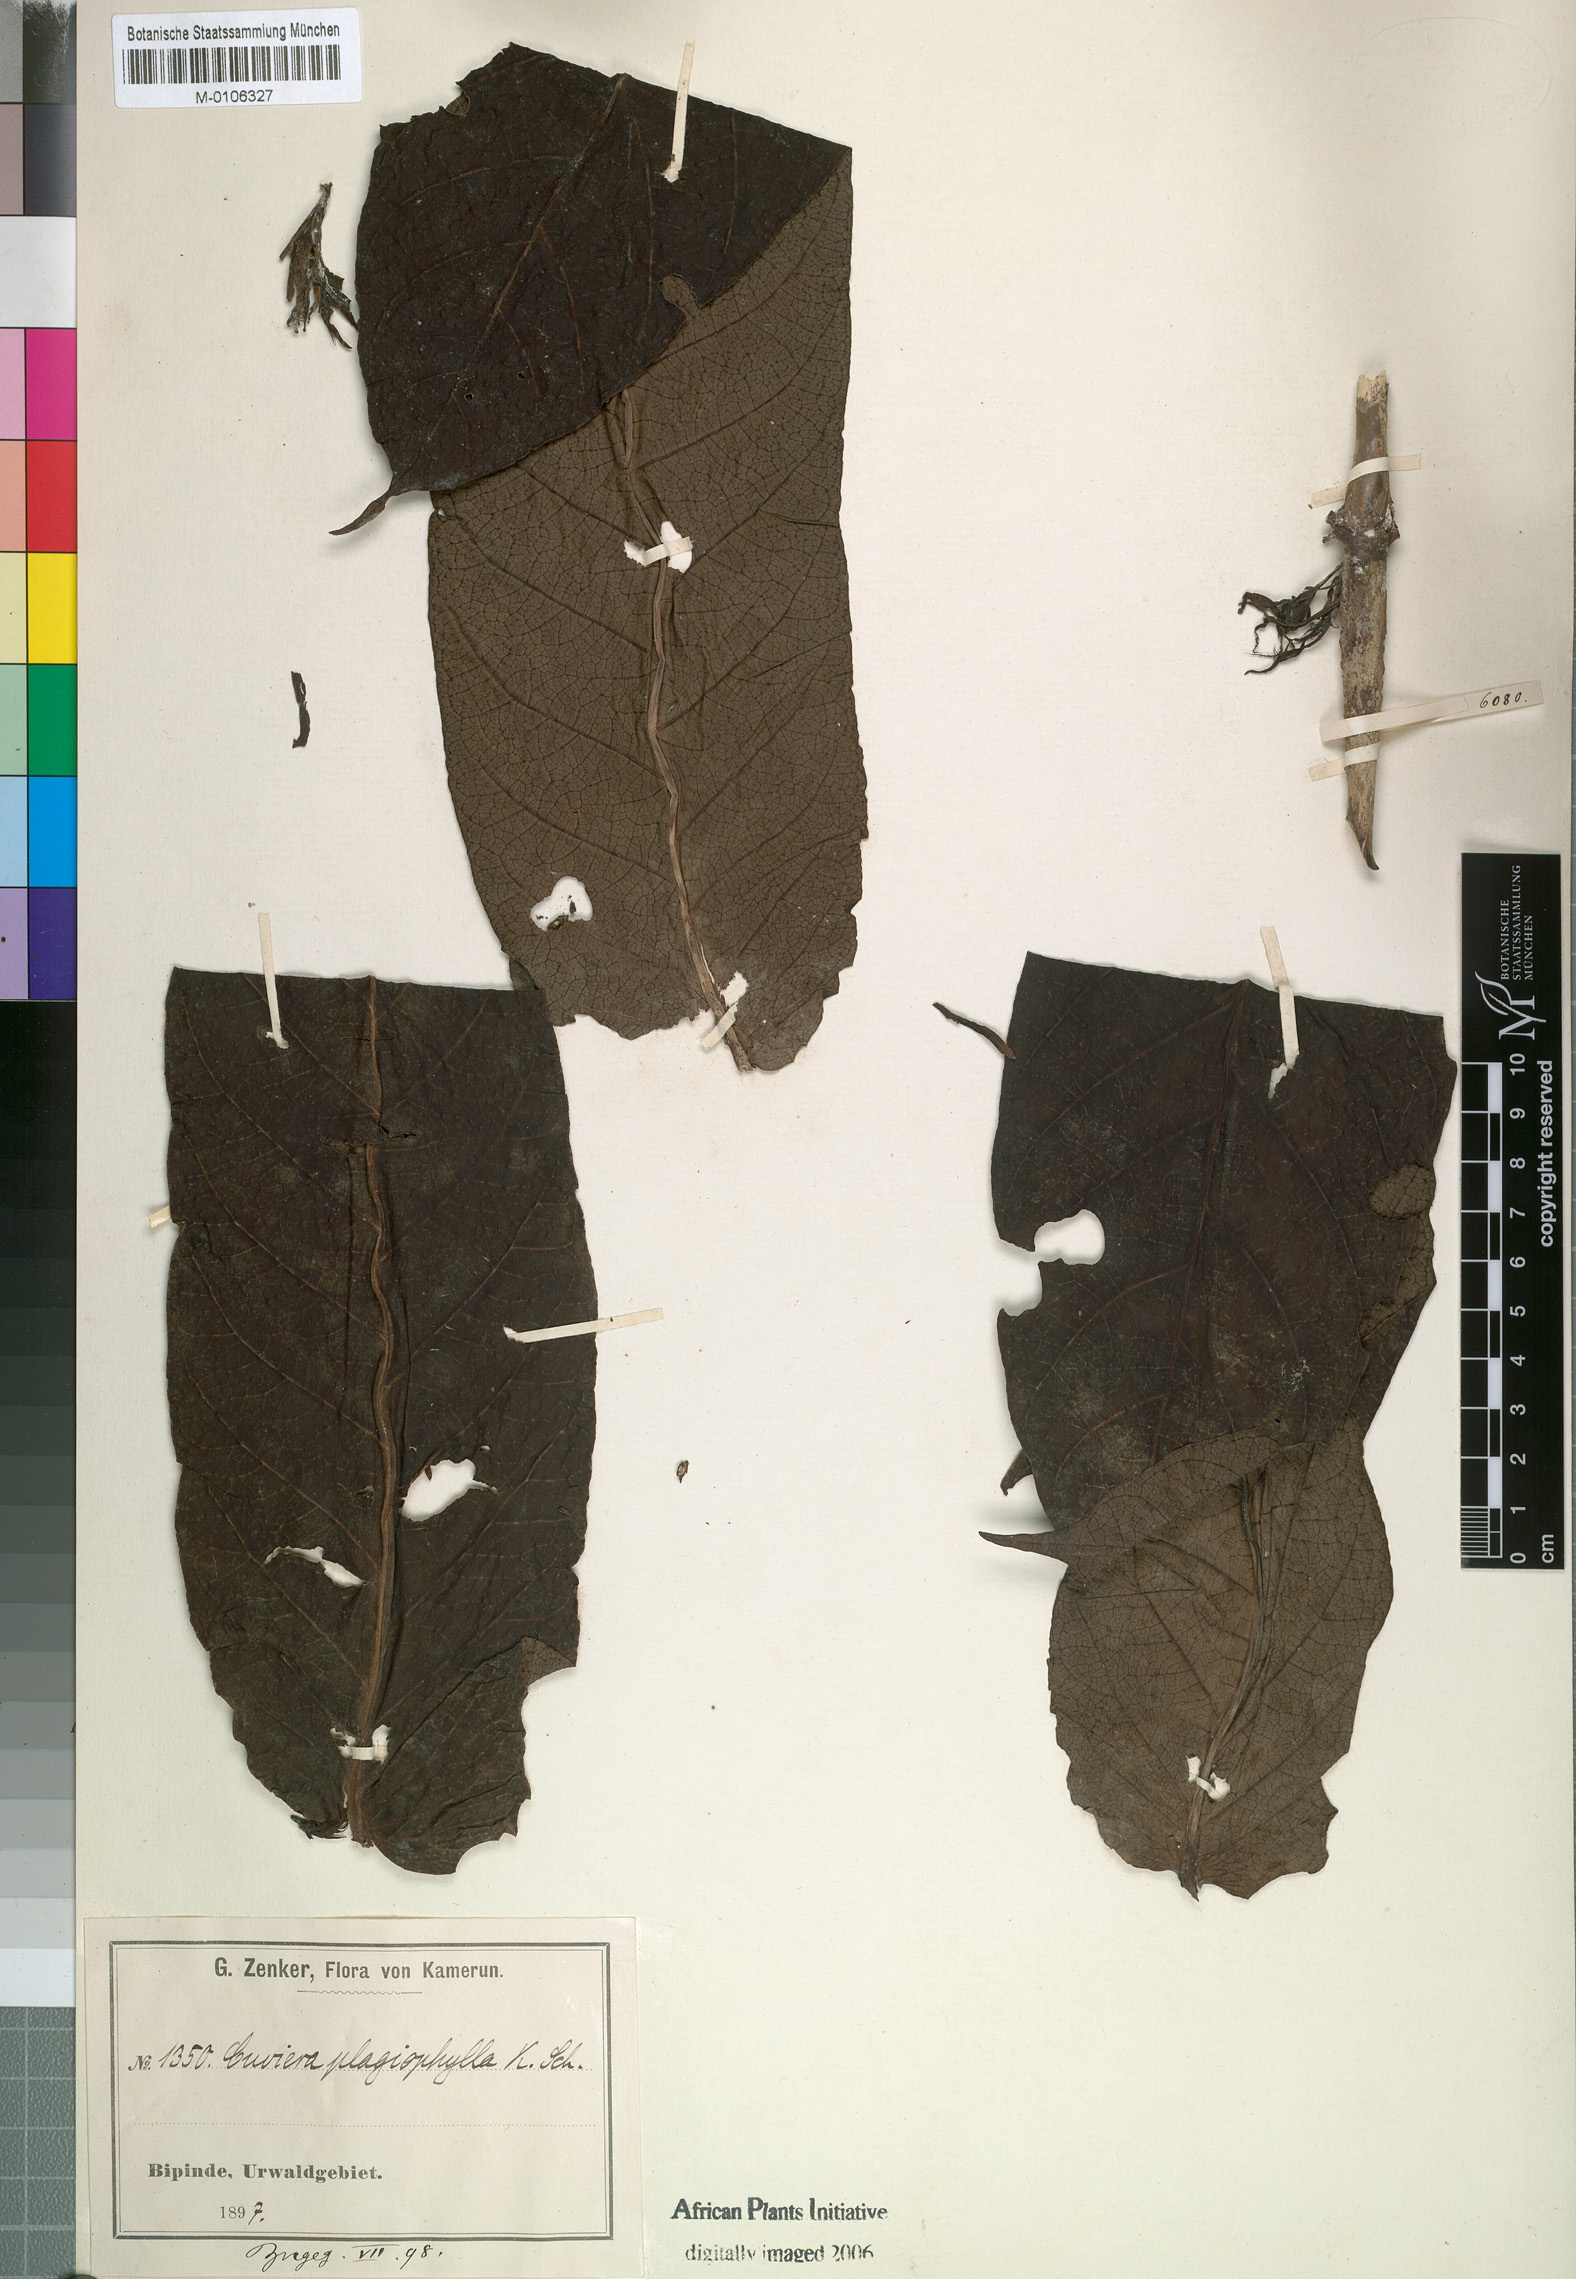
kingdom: Plantae
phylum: Tracheophyta
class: Magnoliopsida
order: Gentianales
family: Rubiaceae
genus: Cuviera
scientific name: Cuviera subuliflora
